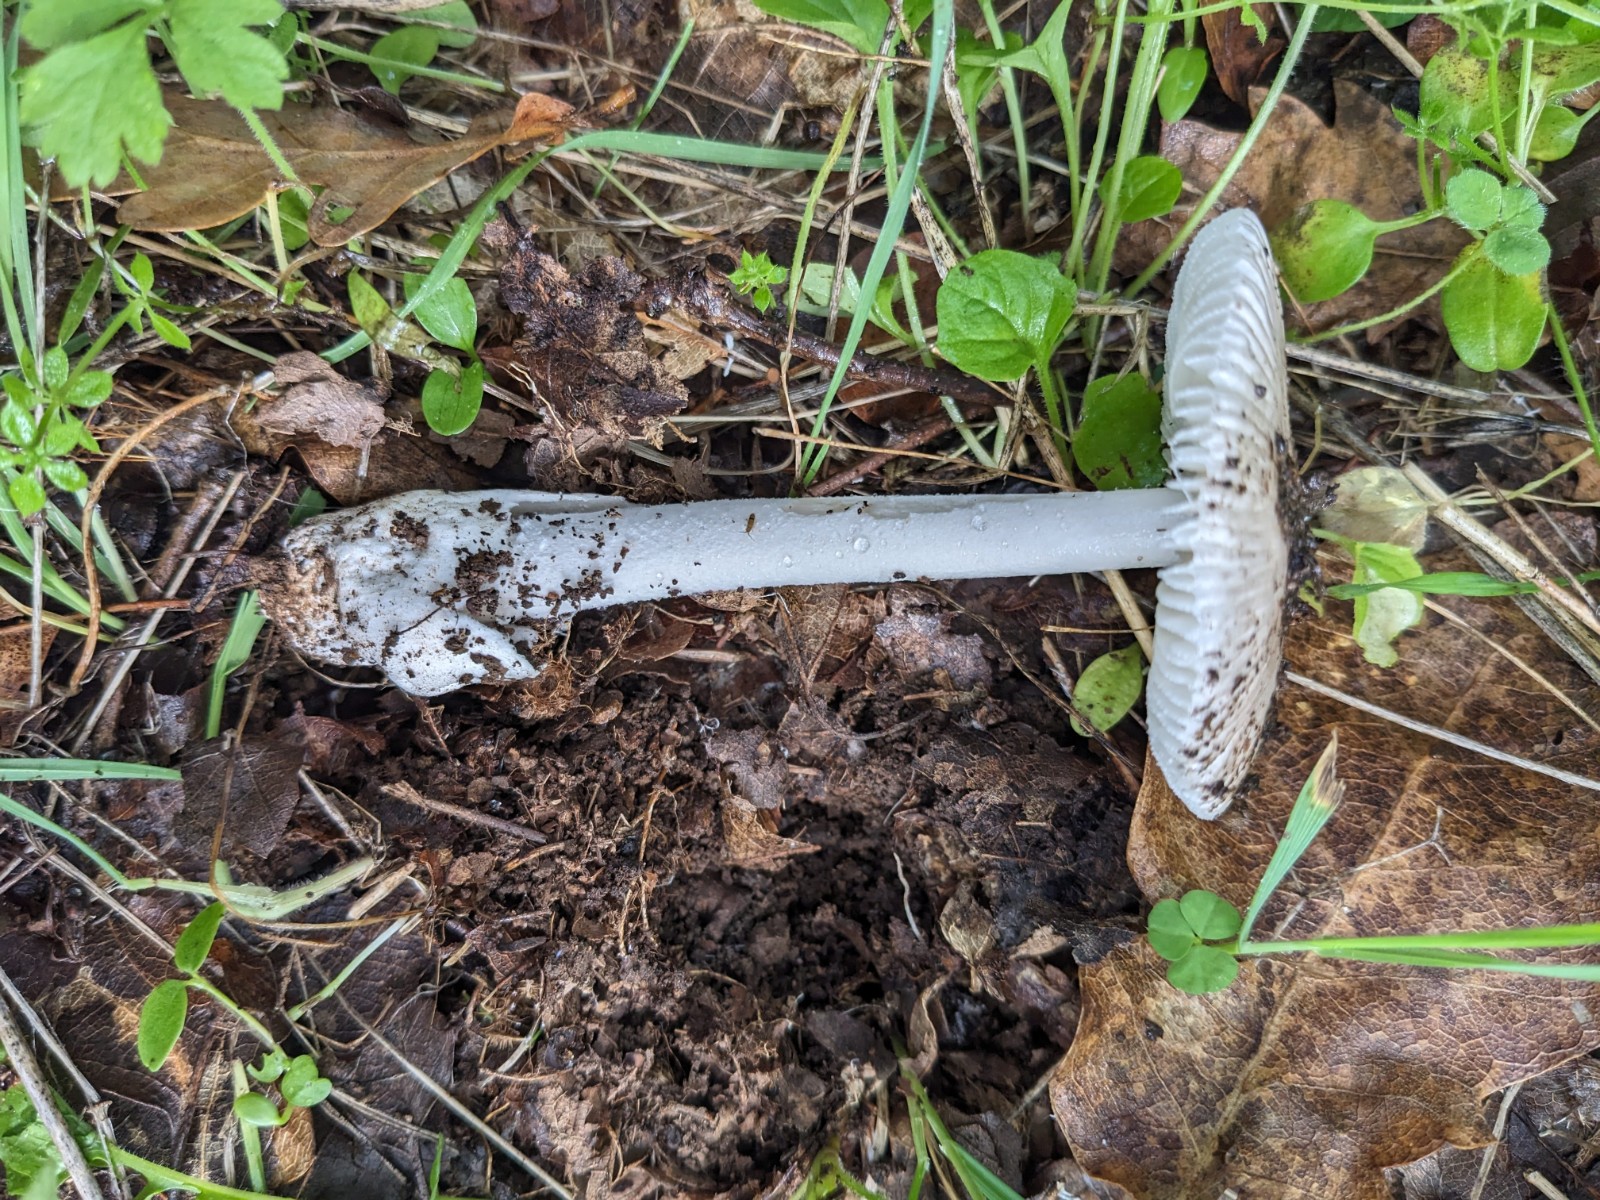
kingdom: Fungi
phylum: Basidiomycota
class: Agaricomycetes
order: Agaricales
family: Amanitaceae
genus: Amanita
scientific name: Amanita huijsmanii
